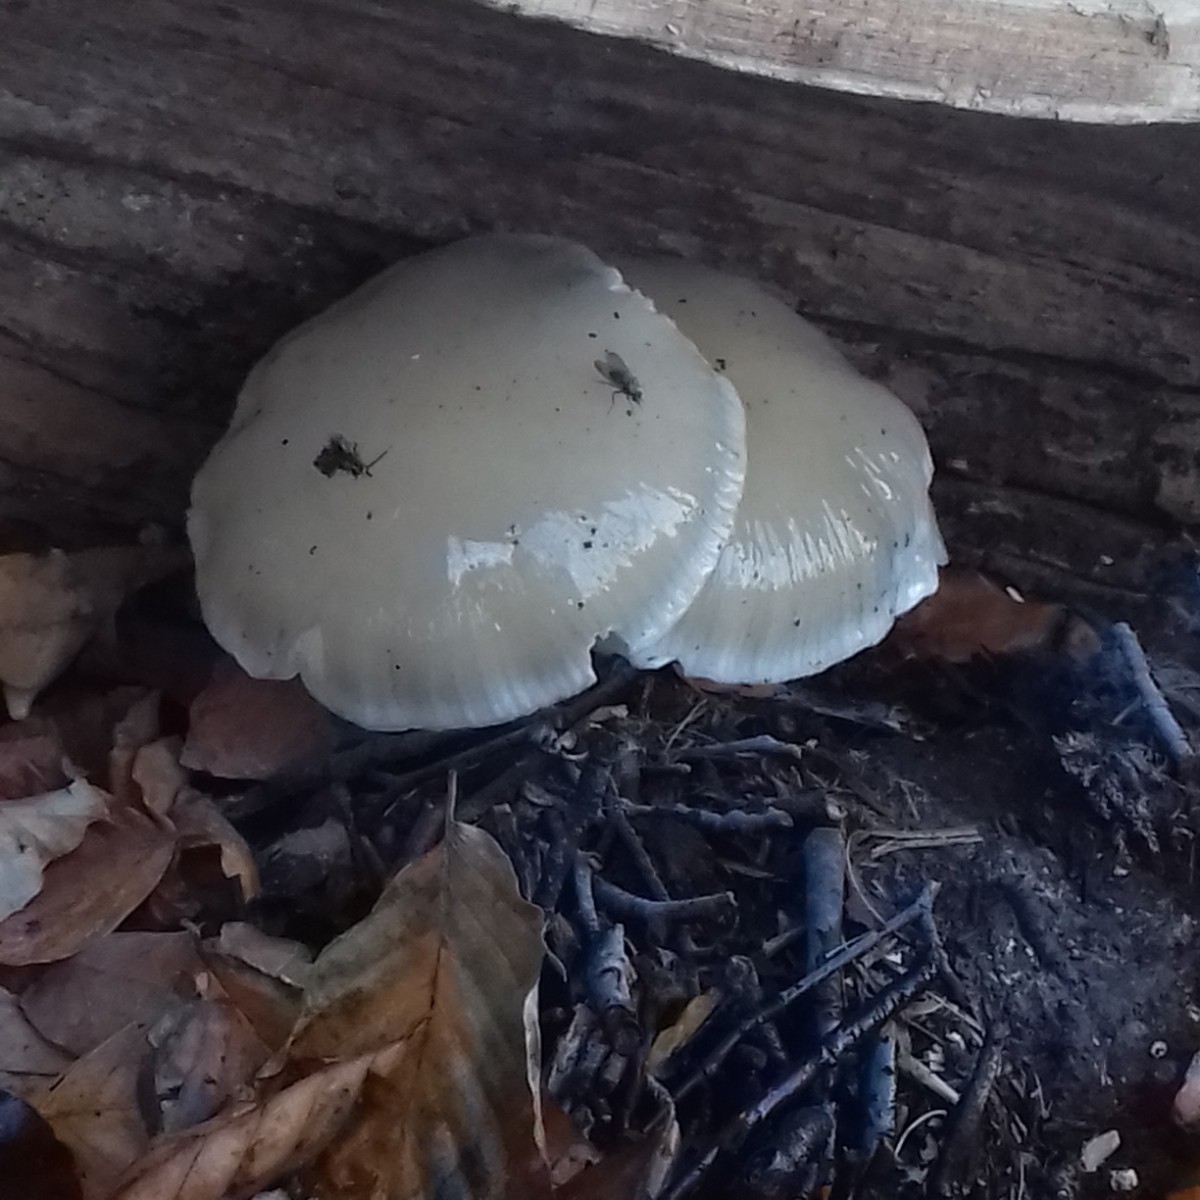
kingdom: Fungi
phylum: Basidiomycota
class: Agaricomycetes
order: Agaricales
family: Physalacriaceae
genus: Mucidula
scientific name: Mucidula mucida
